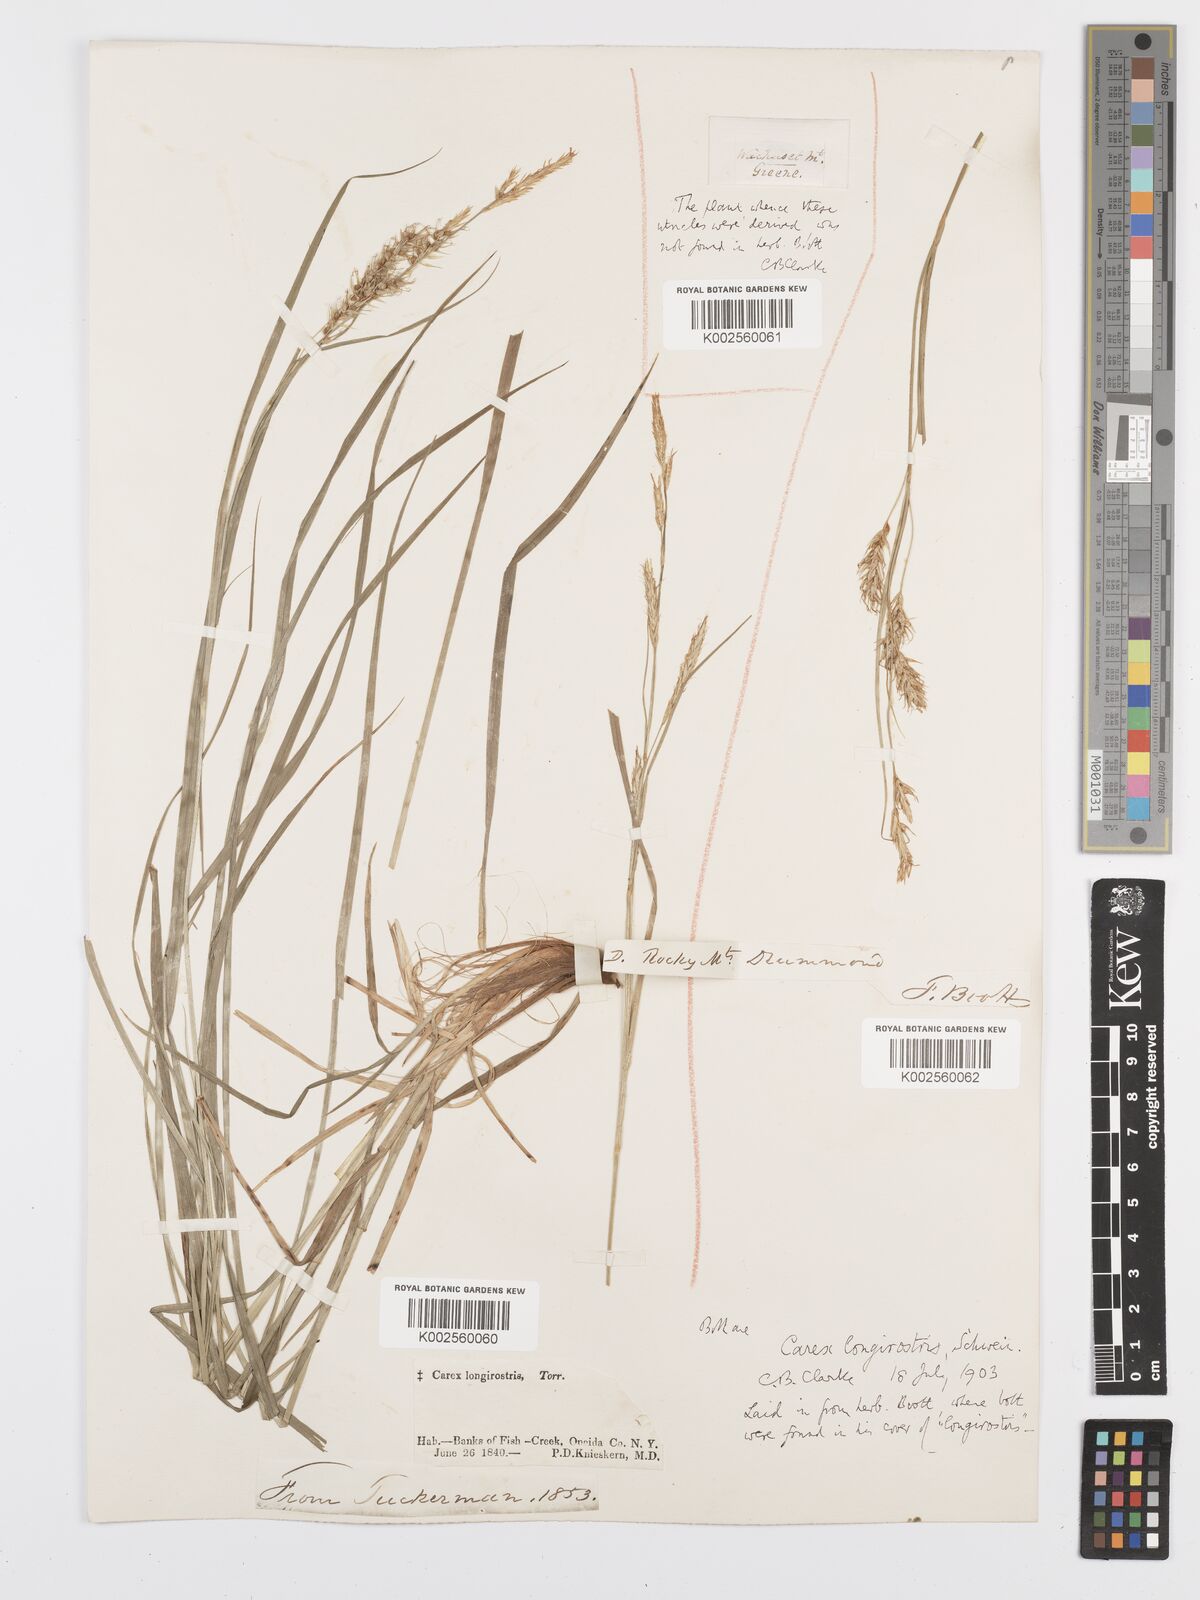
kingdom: Plantae
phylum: Tracheophyta
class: Liliopsida
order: Poales
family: Cyperaceae
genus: Carex
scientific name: Carex sprengelii
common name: Long-beaked sedge
